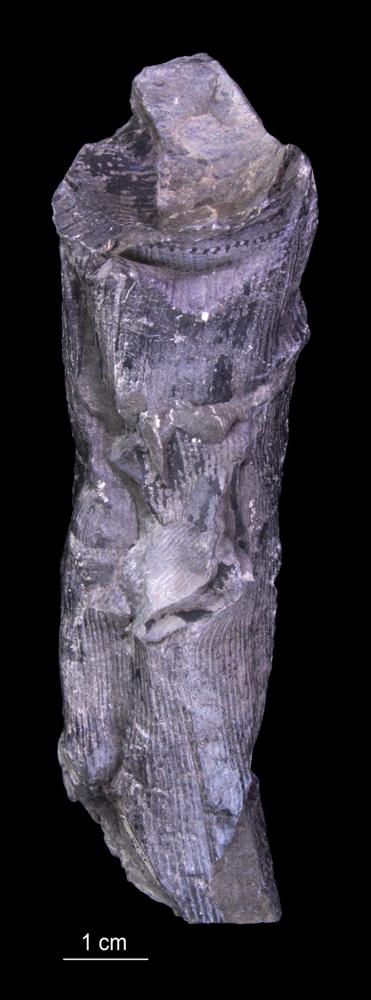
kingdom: Plantae
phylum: Tracheophyta
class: Polypodiopsida
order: Equisetales
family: Calamitaceae
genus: Calamites
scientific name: Calamites
